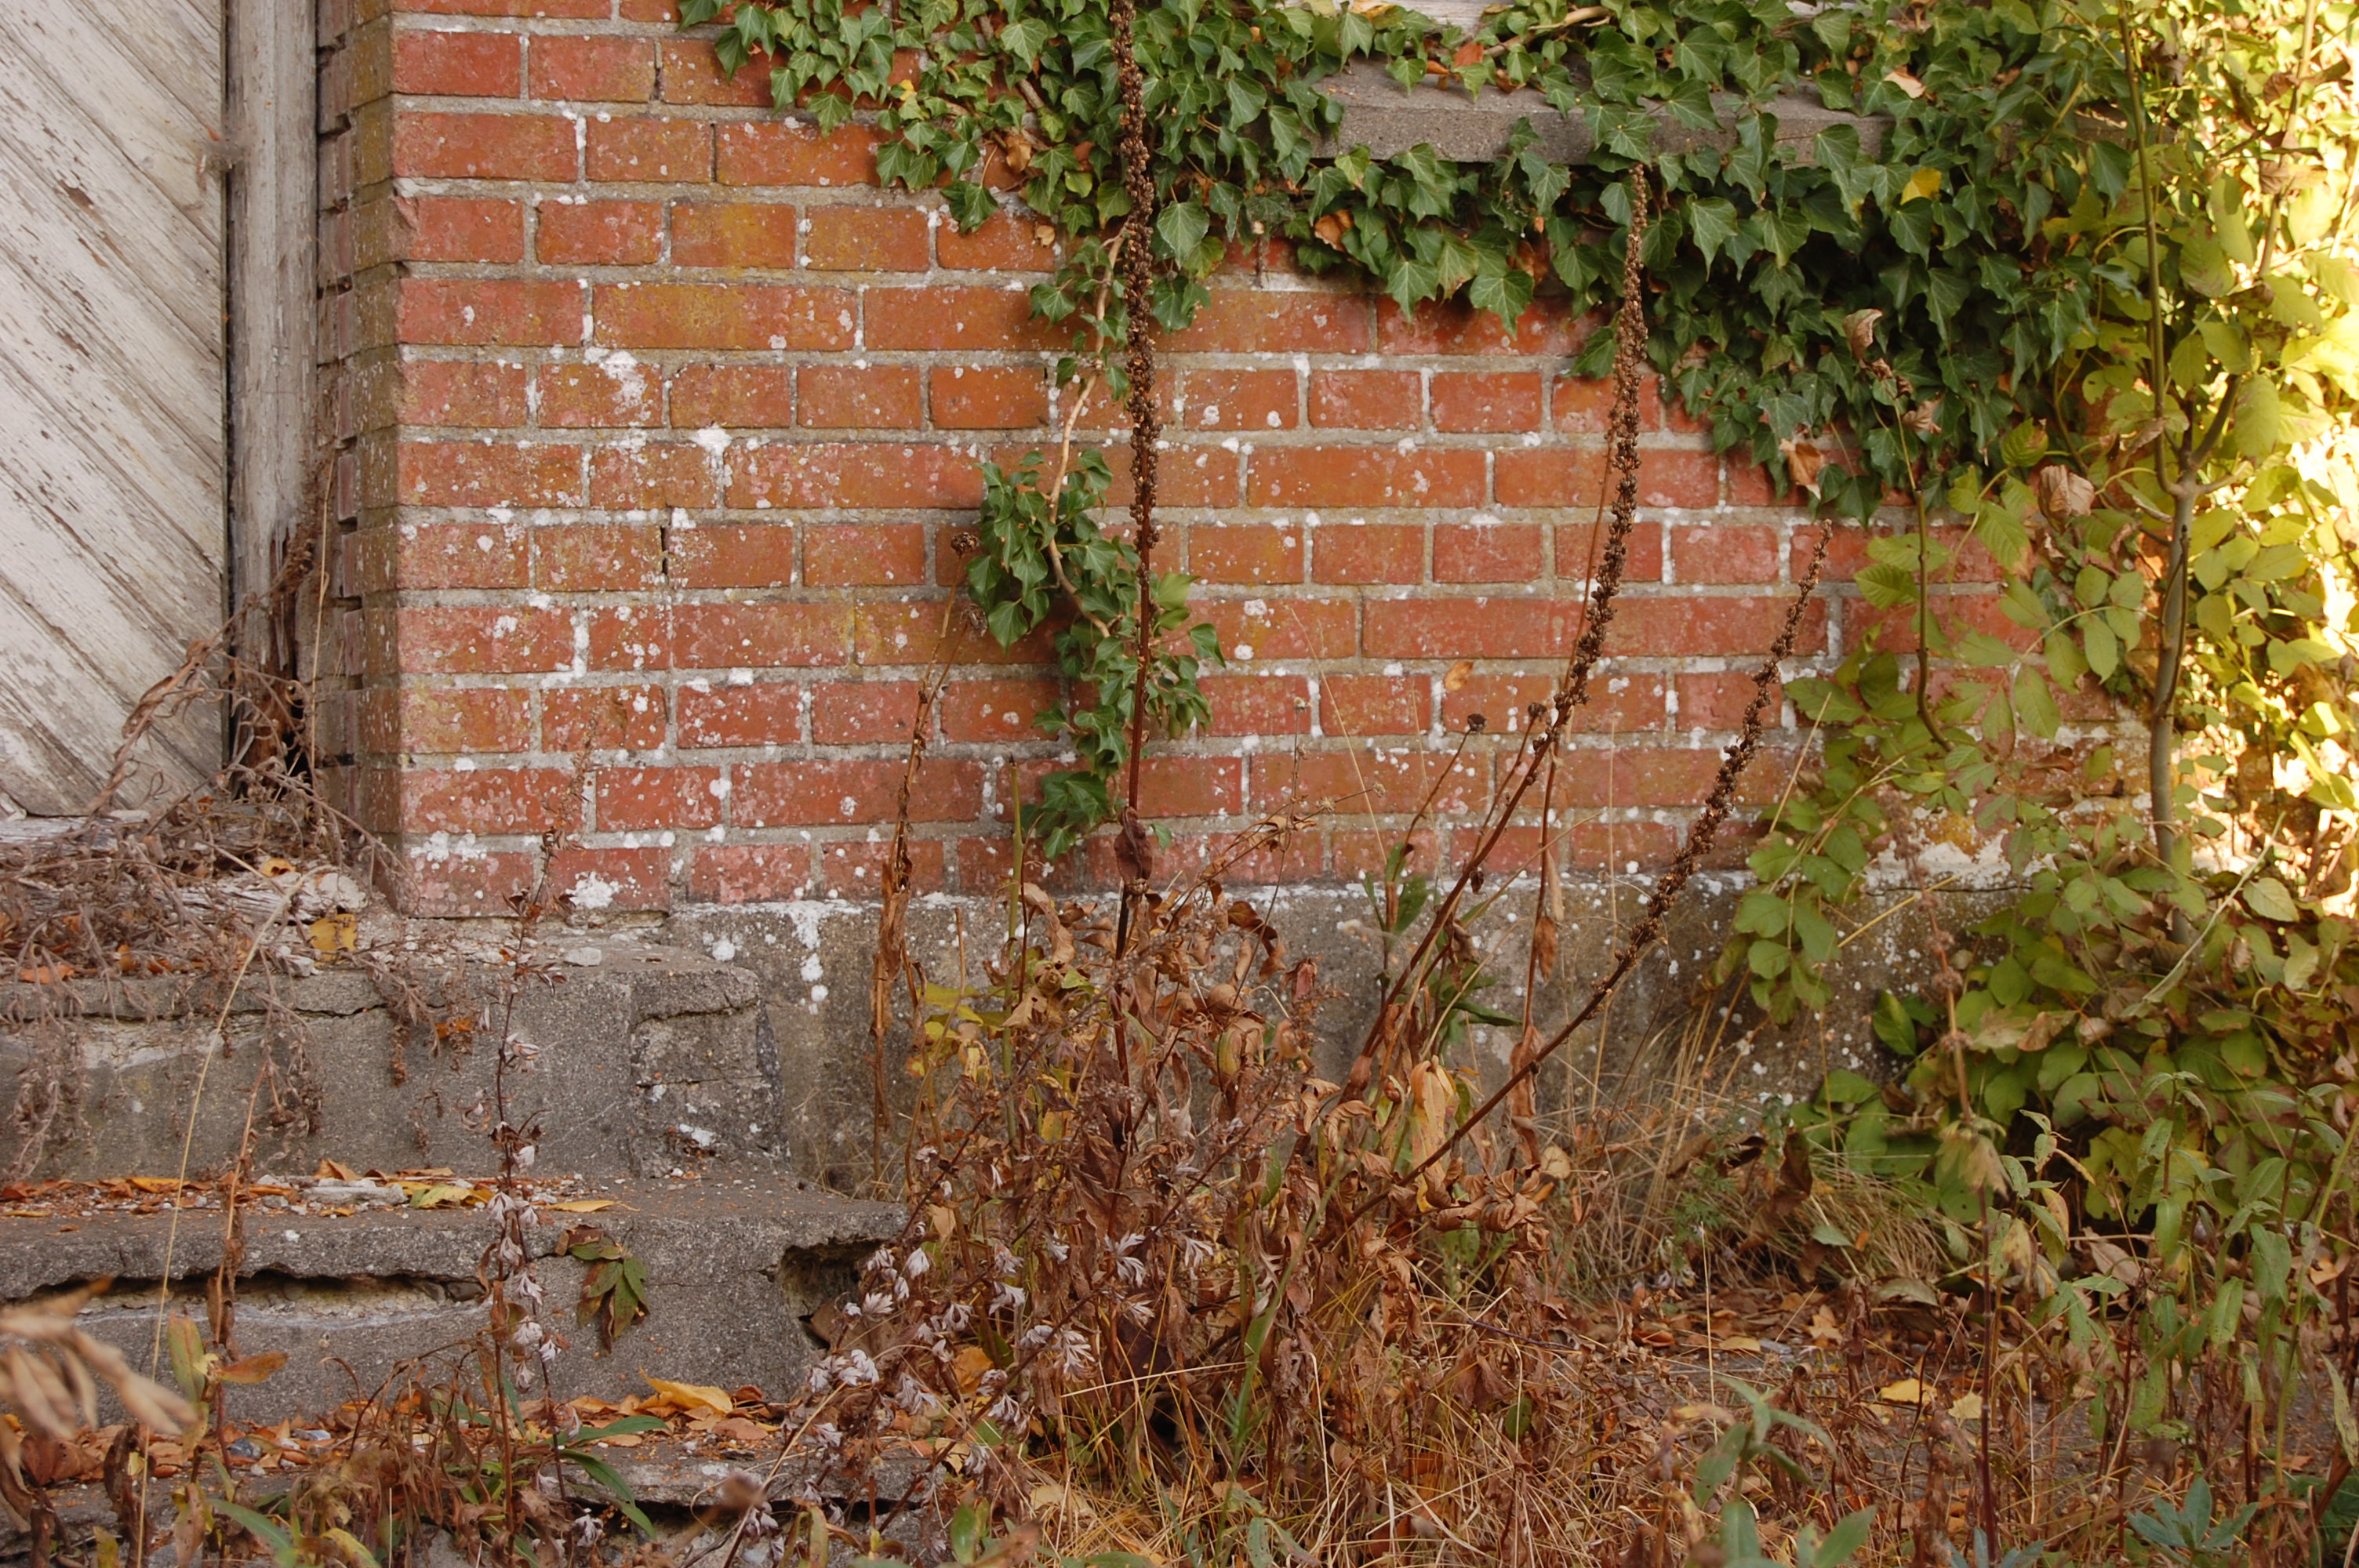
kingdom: Plantae
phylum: Tracheophyta
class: Magnoliopsida
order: Lamiales
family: Scrophulariaceae
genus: Verbascum
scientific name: Verbascum nigrum
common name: Dark mullein
